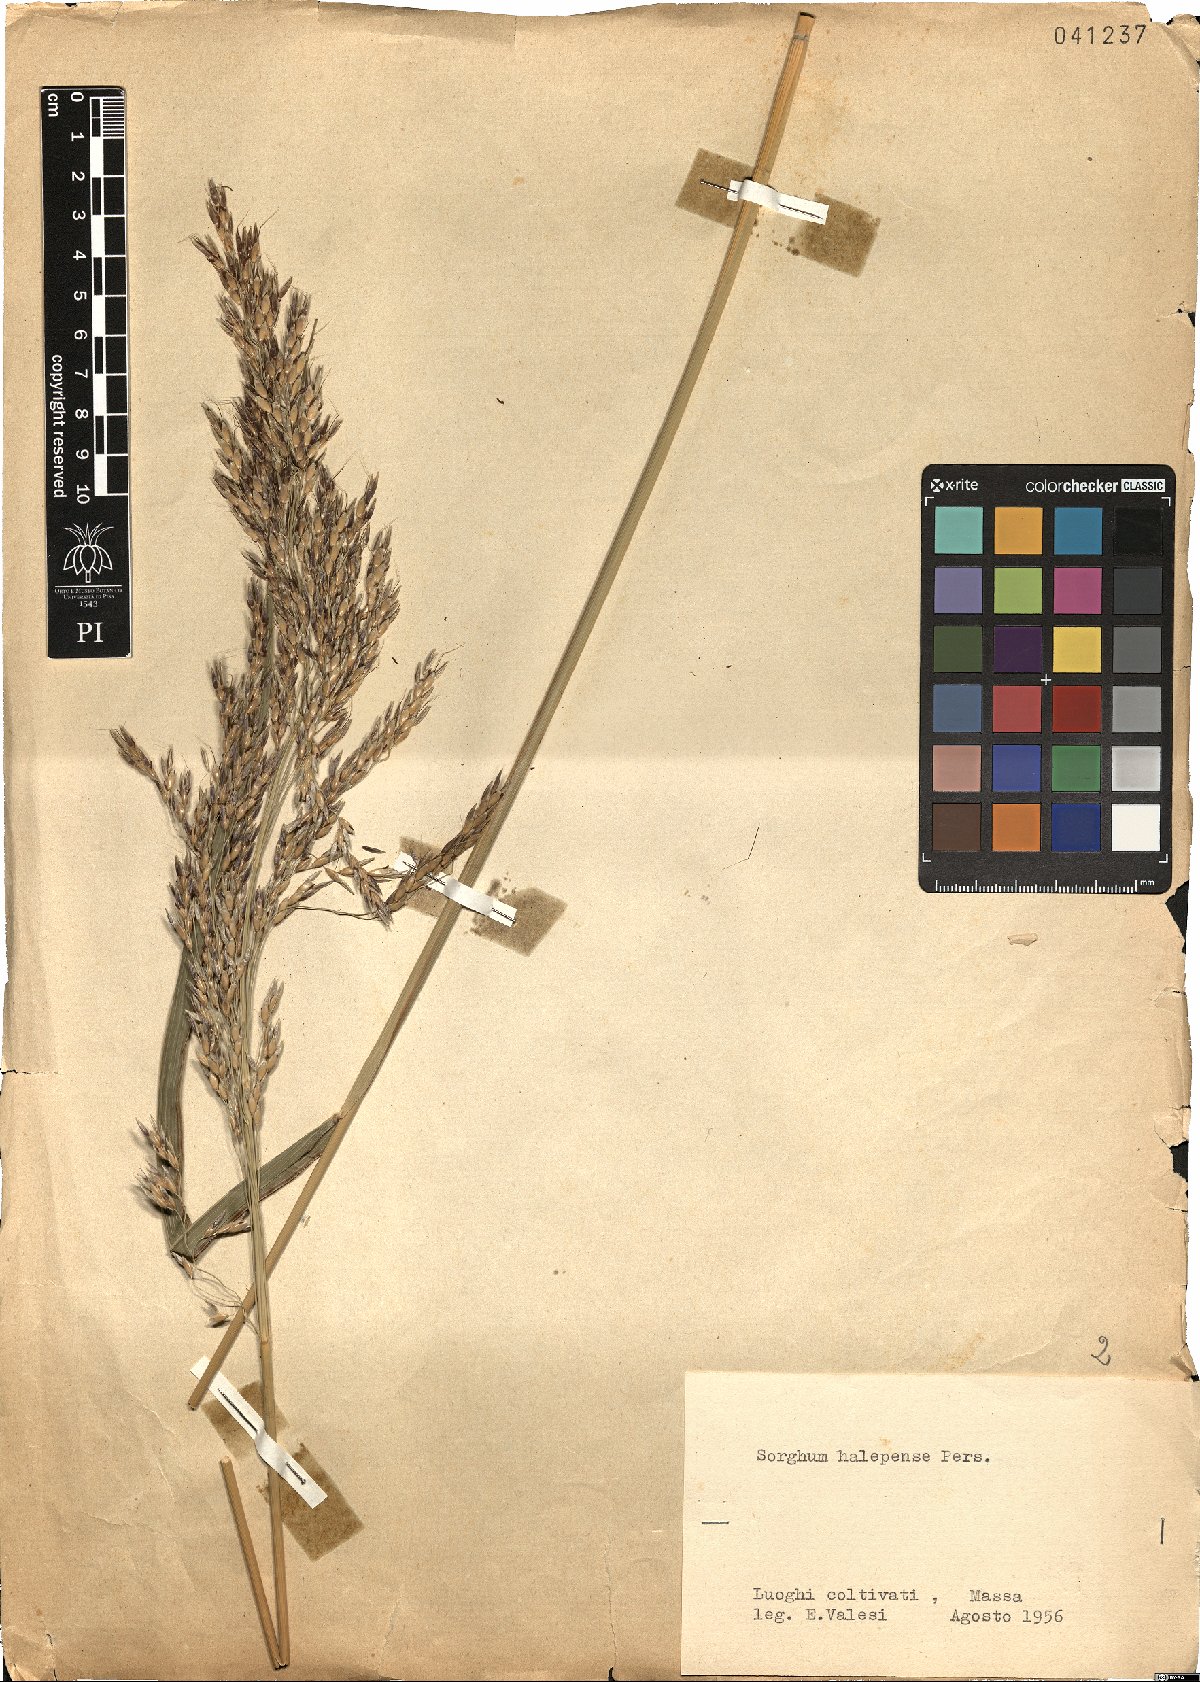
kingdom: Plantae
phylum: Tracheophyta
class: Liliopsida
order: Poales
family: Poaceae
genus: Sorghum
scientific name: Sorghum halepense
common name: Johnson-grass
